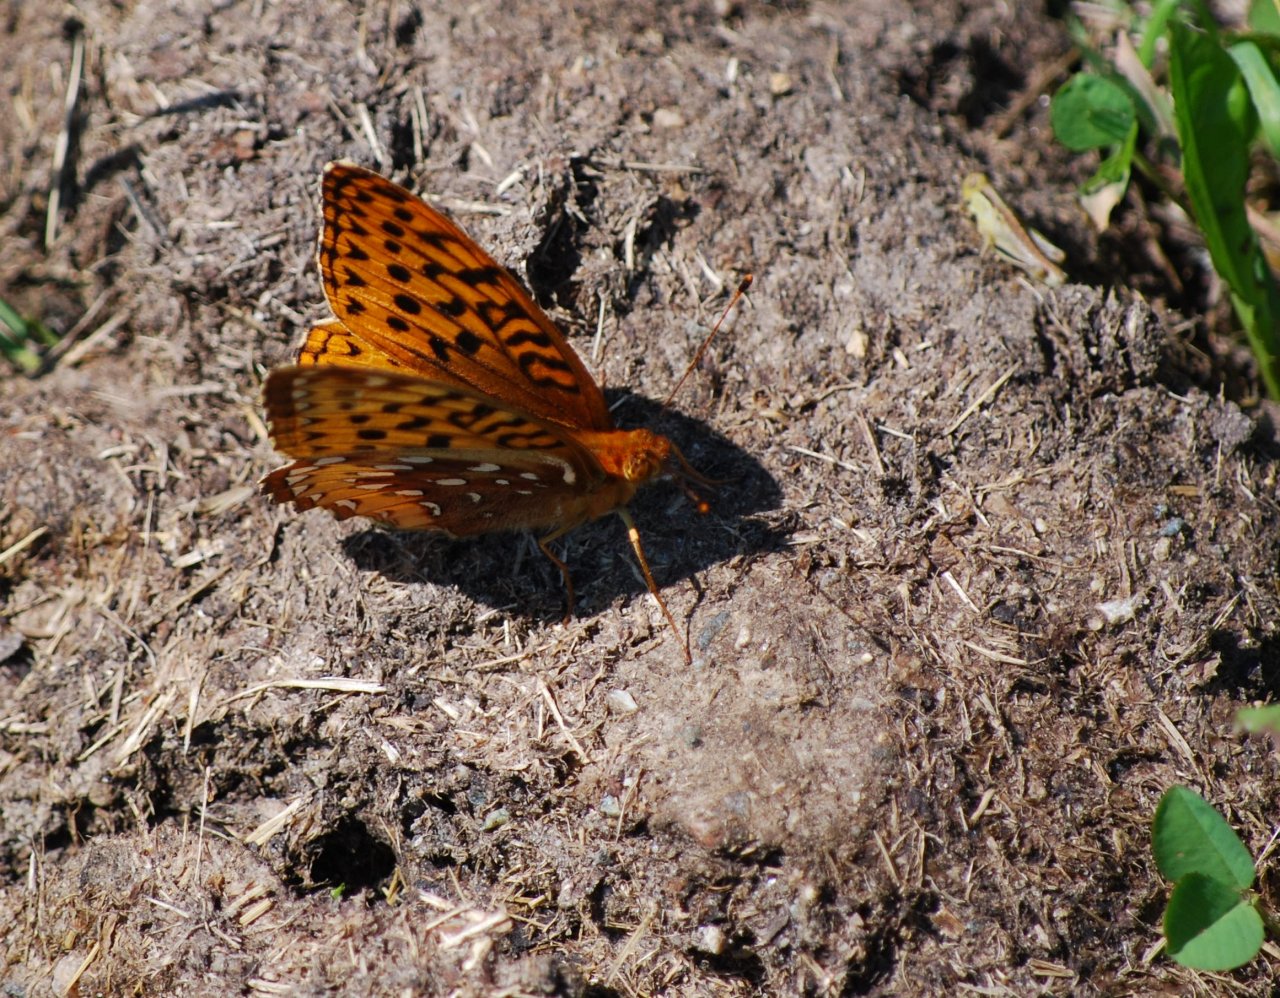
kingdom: Animalia
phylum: Arthropoda
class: Insecta
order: Lepidoptera
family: Nymphalidae
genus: Speyeria
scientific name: Speyeria cybele
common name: Great Spangled Fritillary
